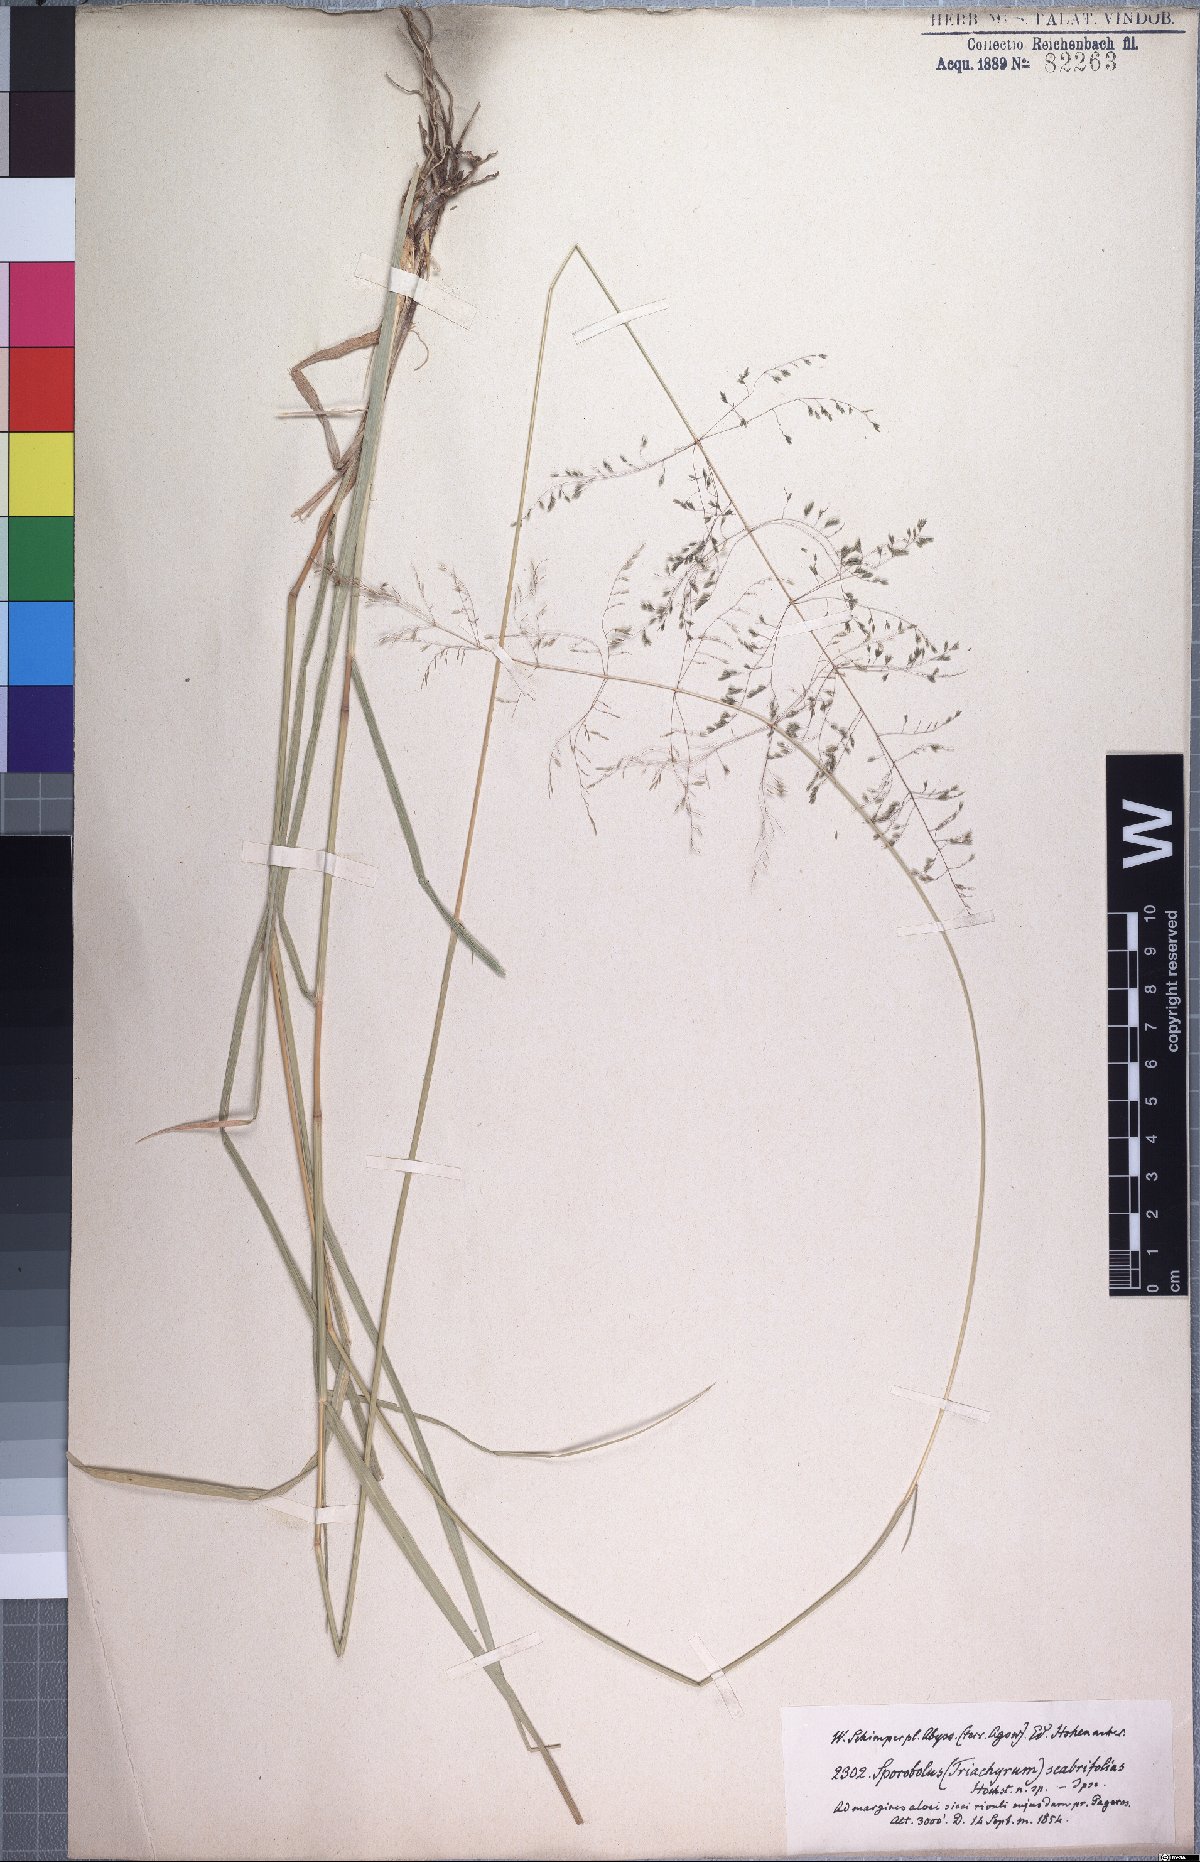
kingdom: Plantae
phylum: Tracheophyta
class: Liliopsida
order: Poales
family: Poaceae
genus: Sporobolus
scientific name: Sporobolus ioclados
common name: Pan dropseed
